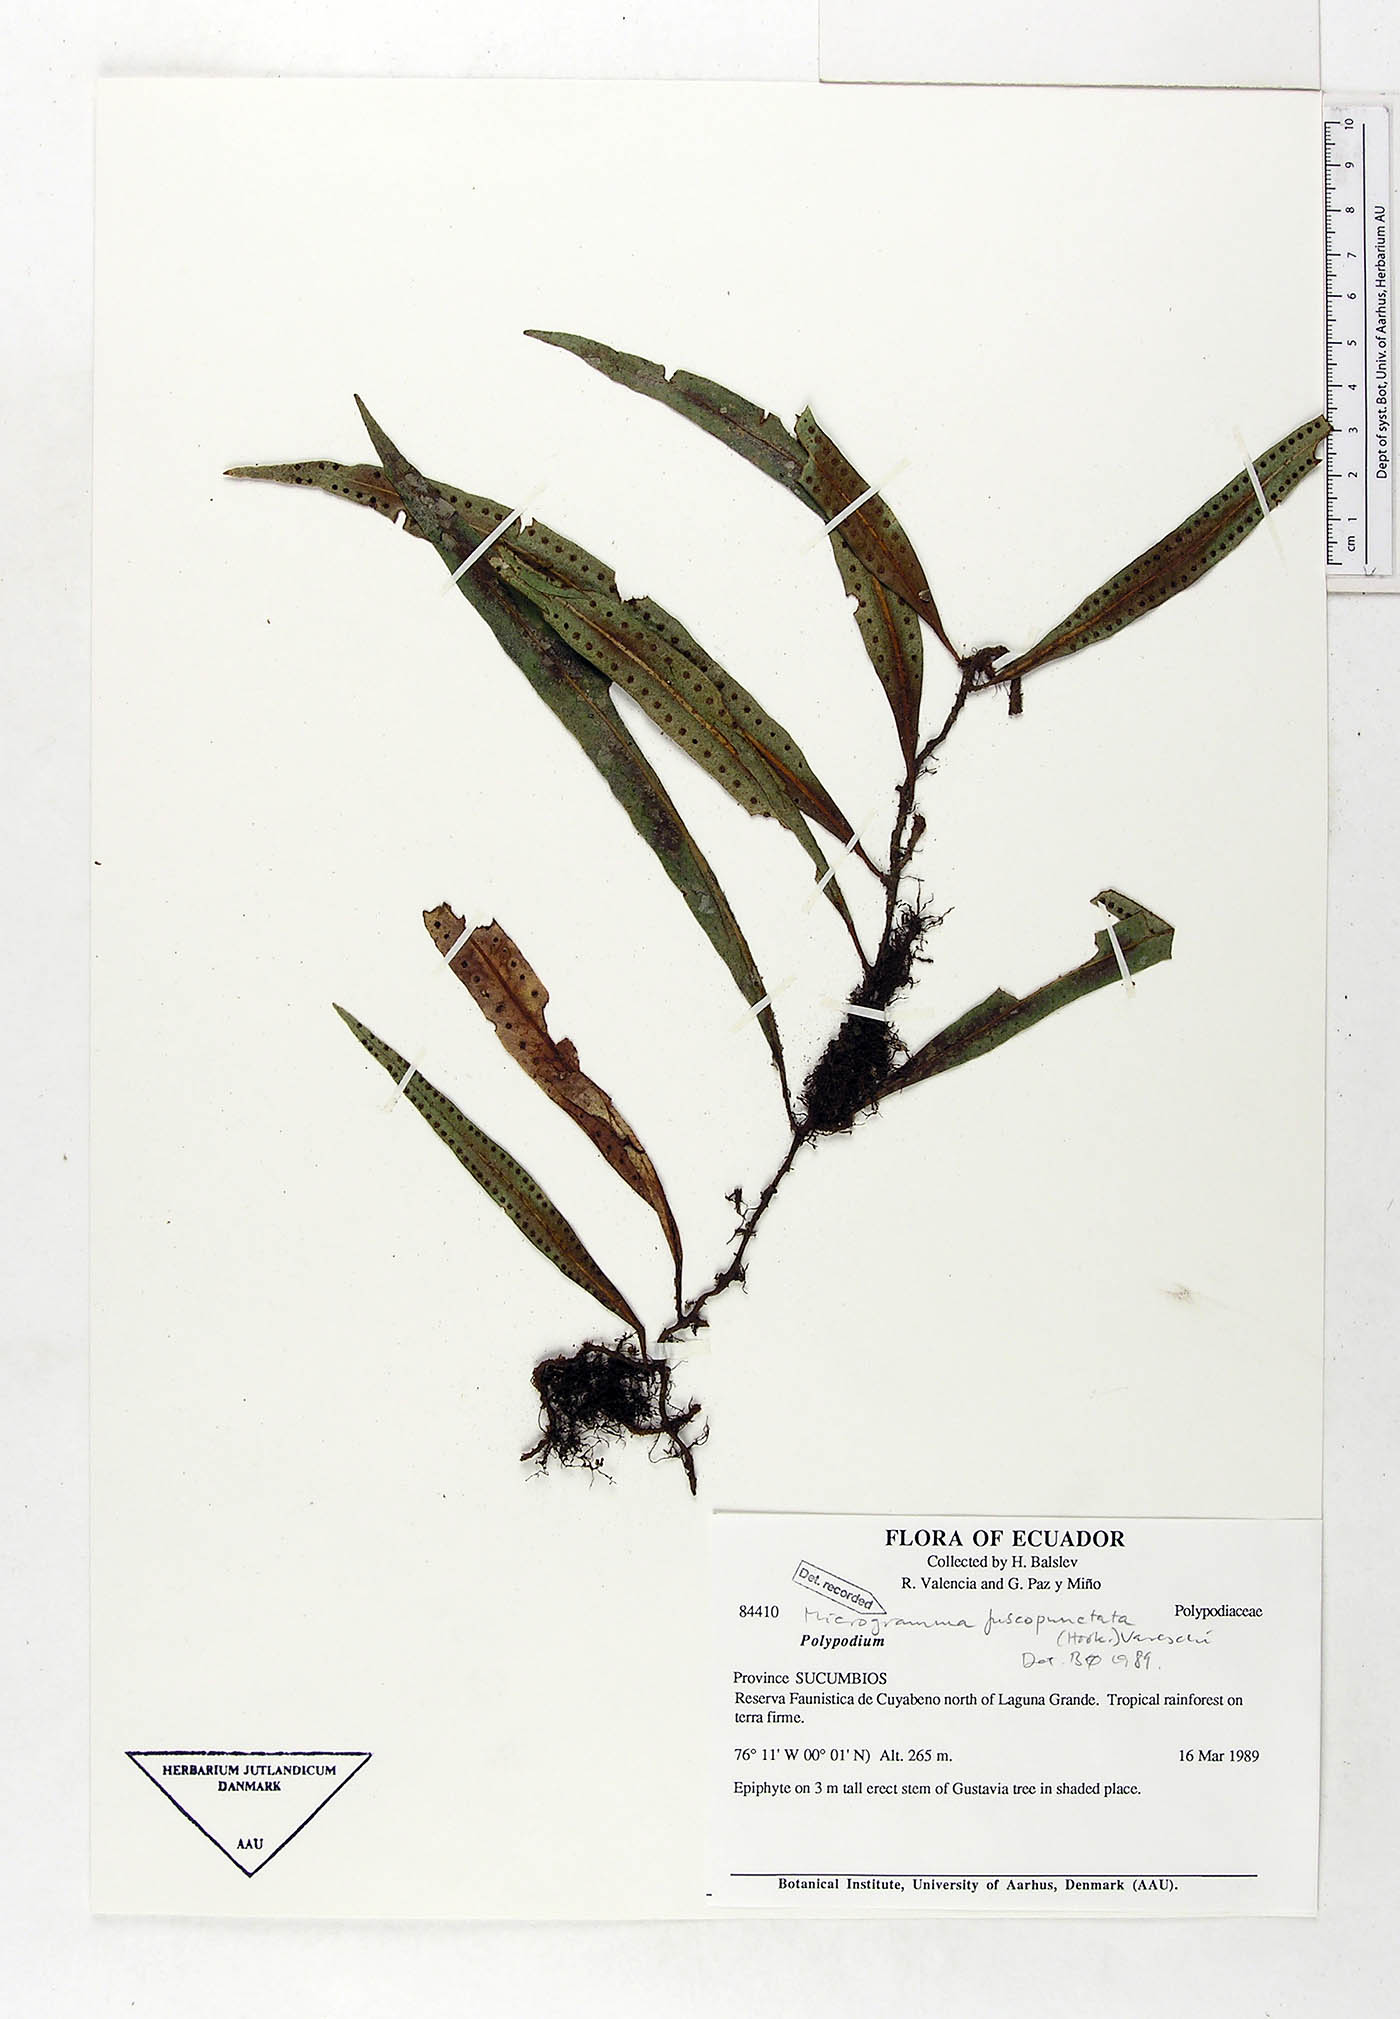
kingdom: Plantae
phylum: Tracheophyta
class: Polypodiopsida
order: Polypodiales
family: Polypodiaceae
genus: Microgramma
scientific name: Microgramma dictyophylla
